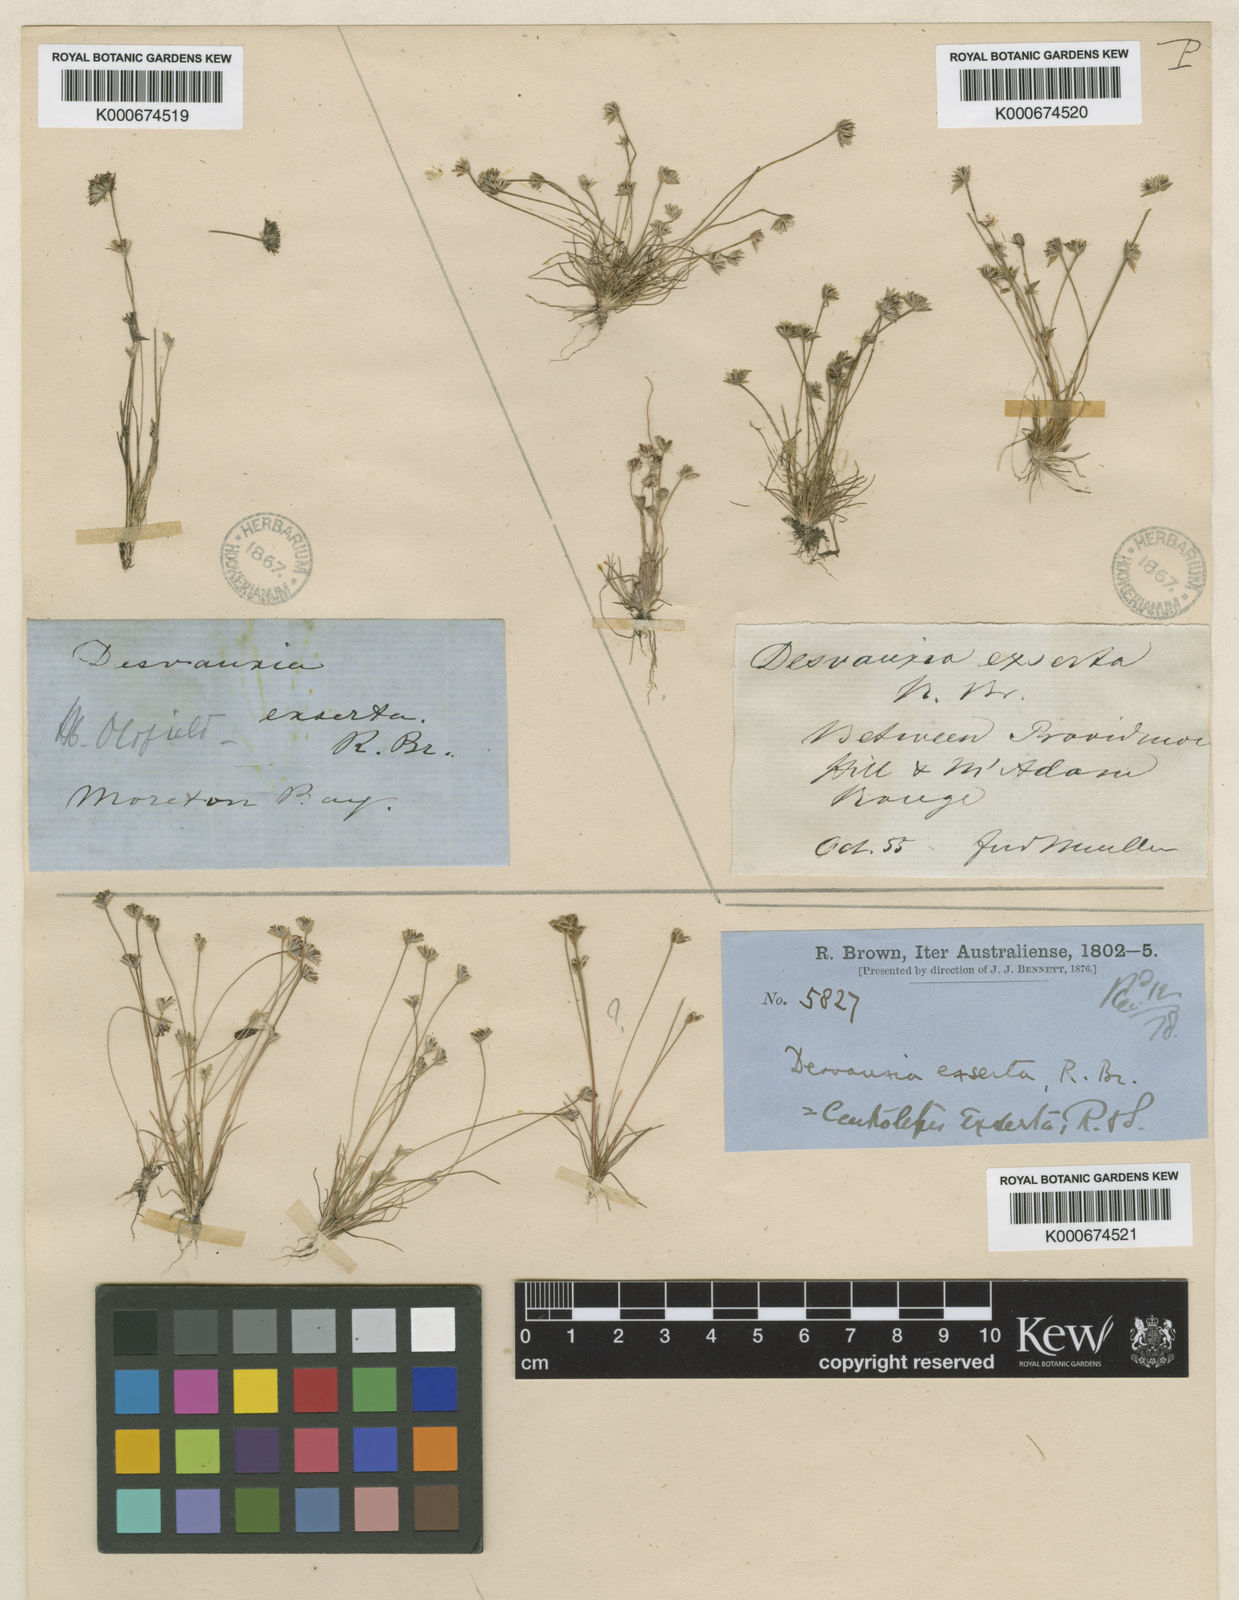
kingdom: Plantae
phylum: Tracheophyta
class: Liliopsida
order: Poales
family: Restionaceae
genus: Centrolepis
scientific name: Centrolepis exserta
